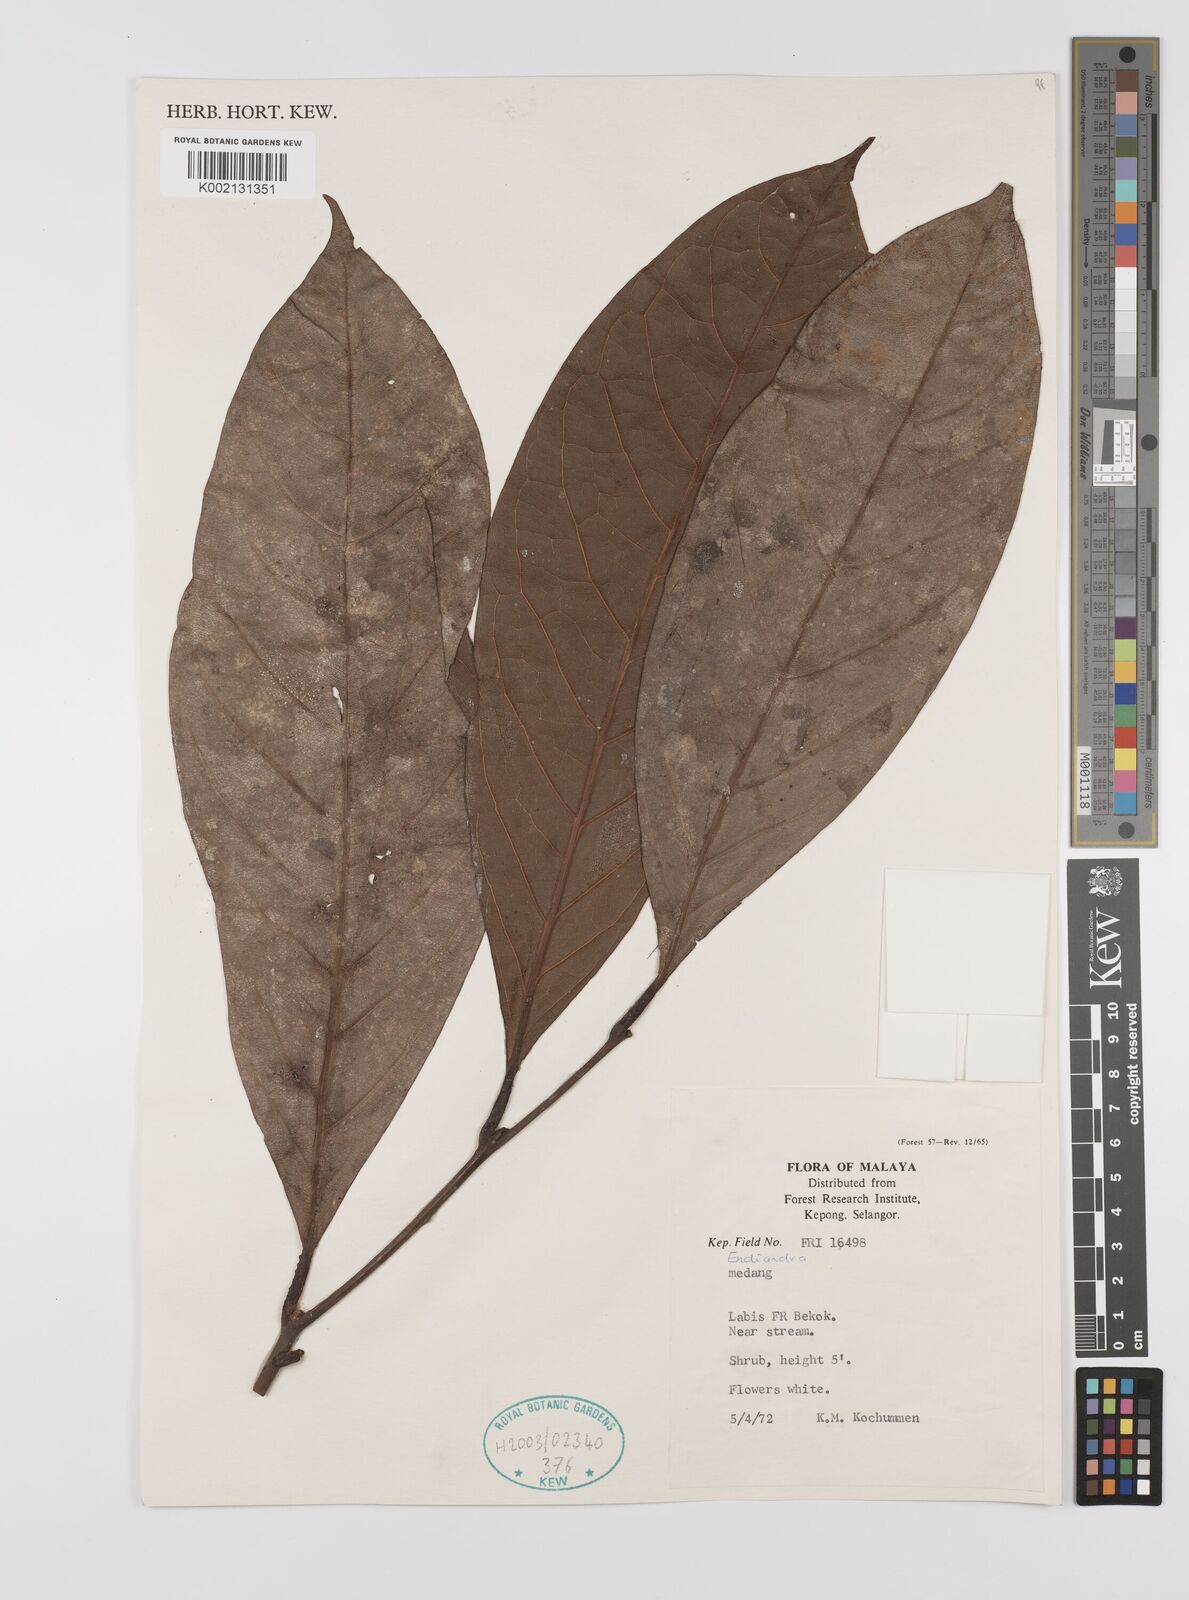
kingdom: Plantae
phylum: Tracheophyta
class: Magnoliopsida
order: Laurales
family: Lauraceae
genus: Endiandra
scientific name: Endiandra
